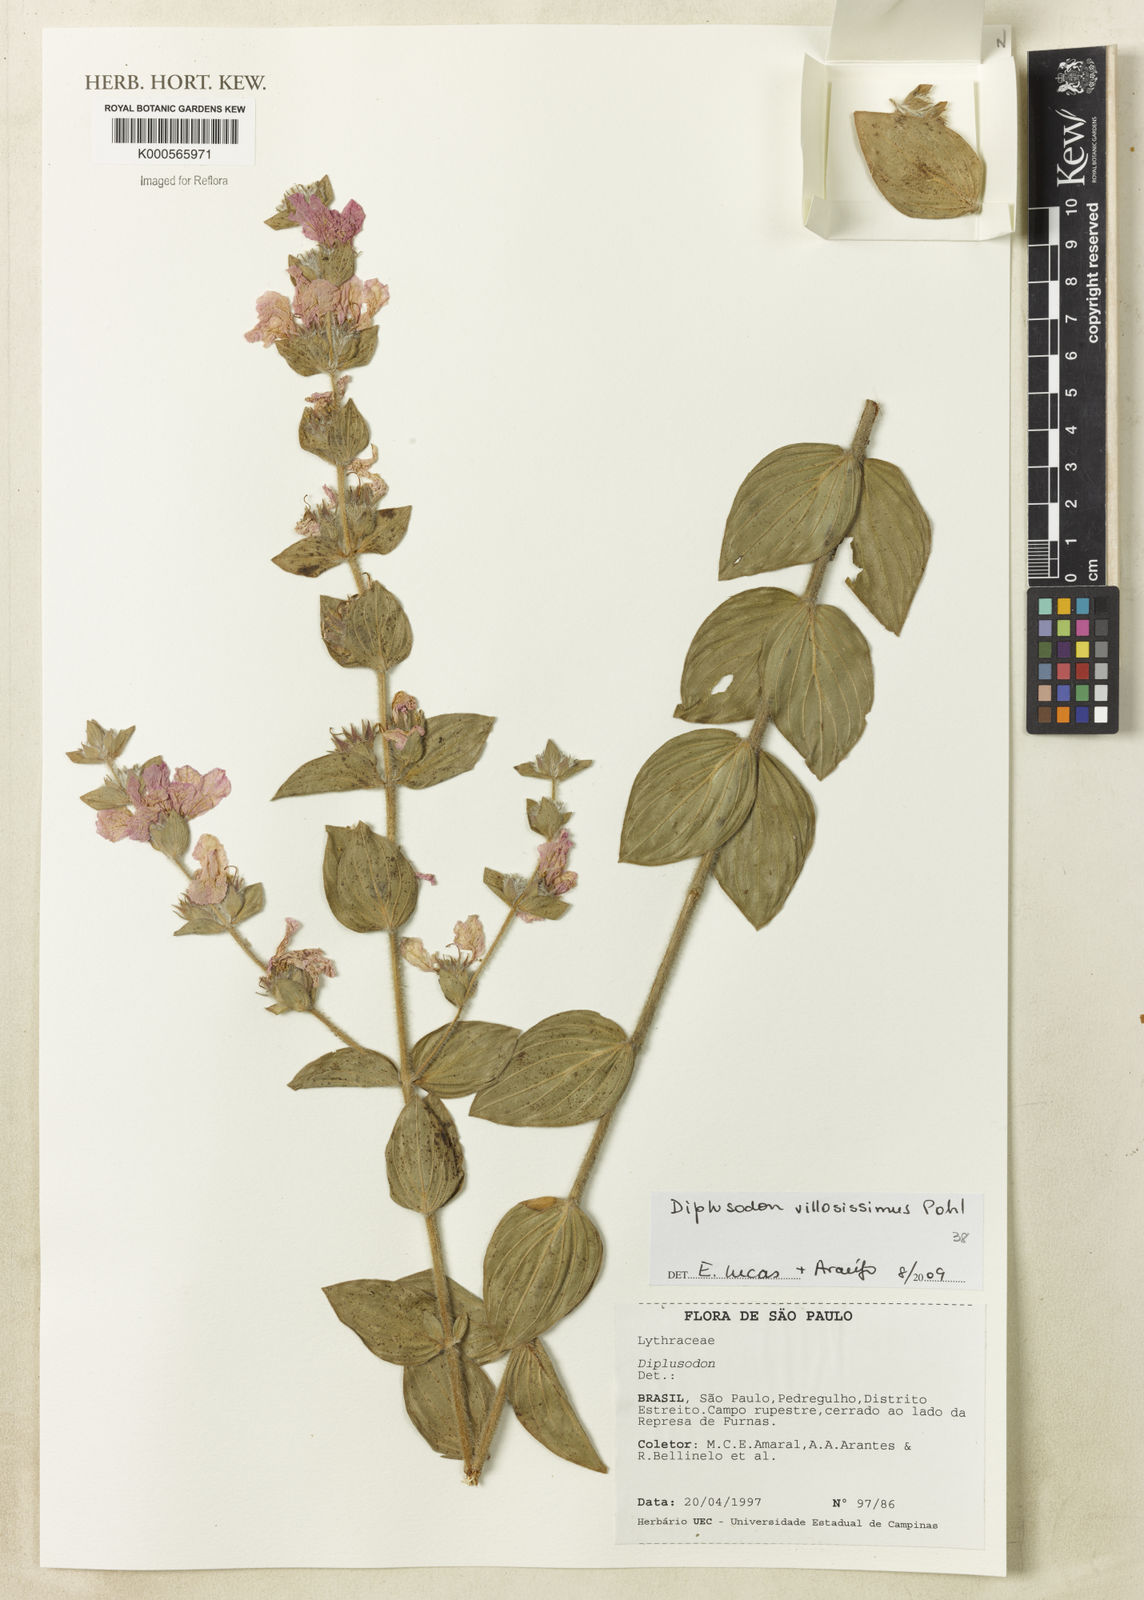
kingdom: Plantae
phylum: Tracheophyta
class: Magnoliopsida
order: Myrtales
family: Lythraceae
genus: Diplusodon
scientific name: Diplusodon villosissimus
